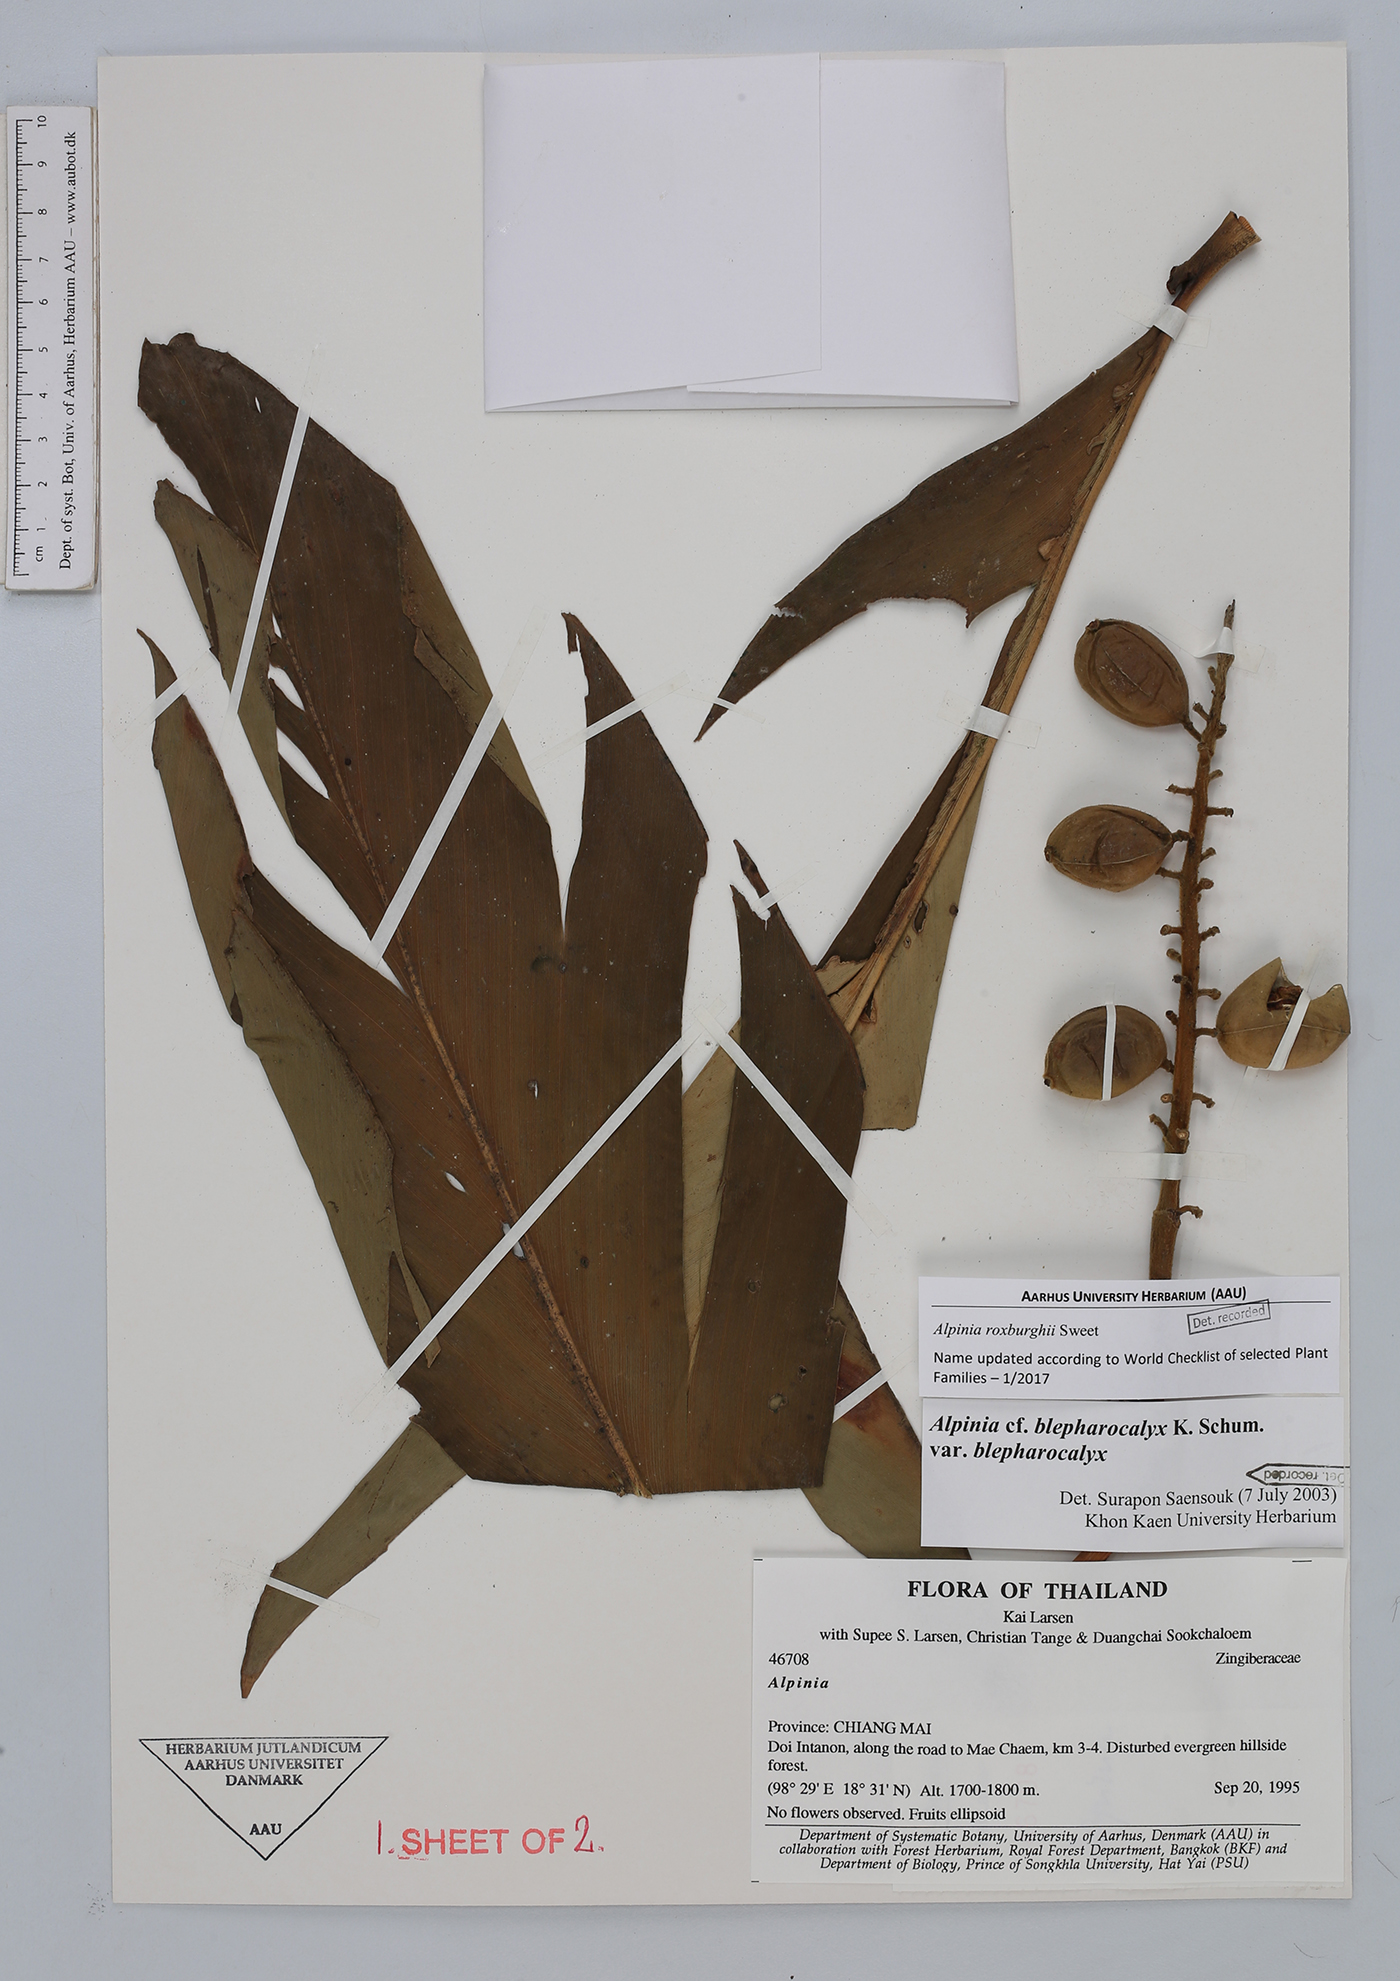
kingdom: Plantae
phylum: Tracheophyta
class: Liliopsida
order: Zingiberales
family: Zingiberaceae
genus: Alpinia
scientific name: Alpinia roxburghii
